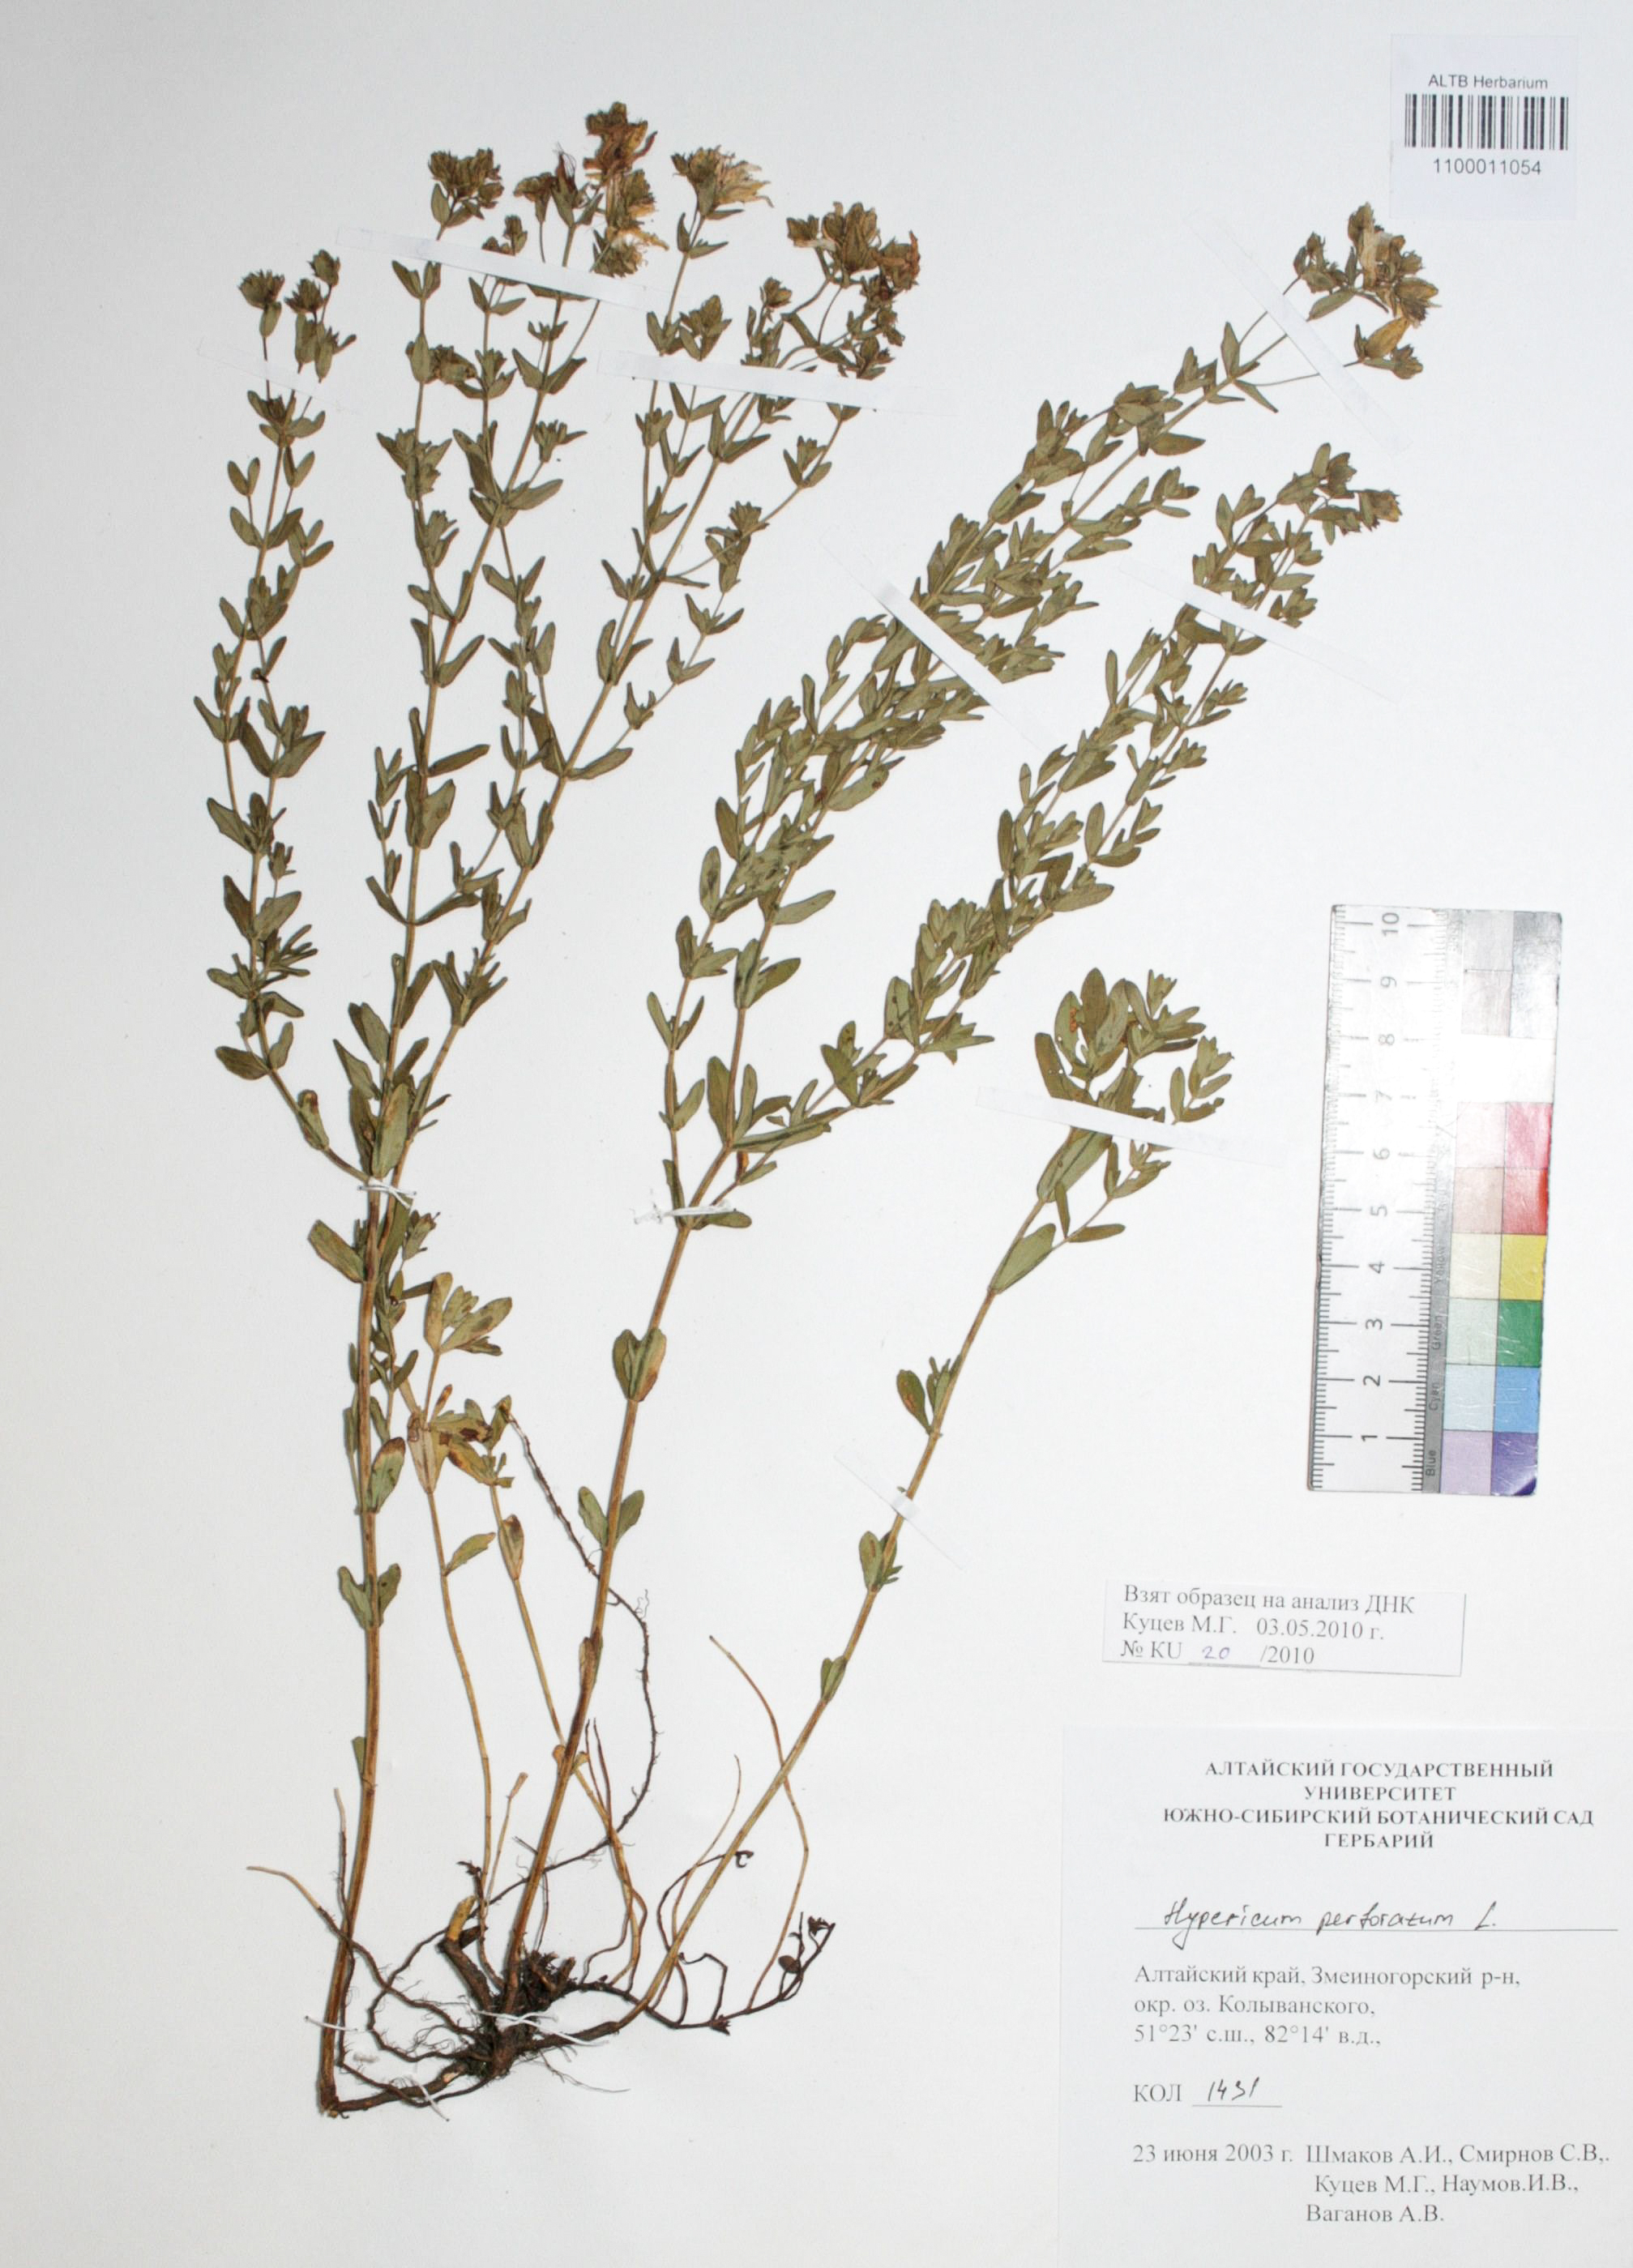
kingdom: Plantae
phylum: Tracheophyta
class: Magnoliopsida
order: Malpighiales
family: Hypericaceae
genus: Hypericum
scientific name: Hypericum perforatum
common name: Common st. johnswort
